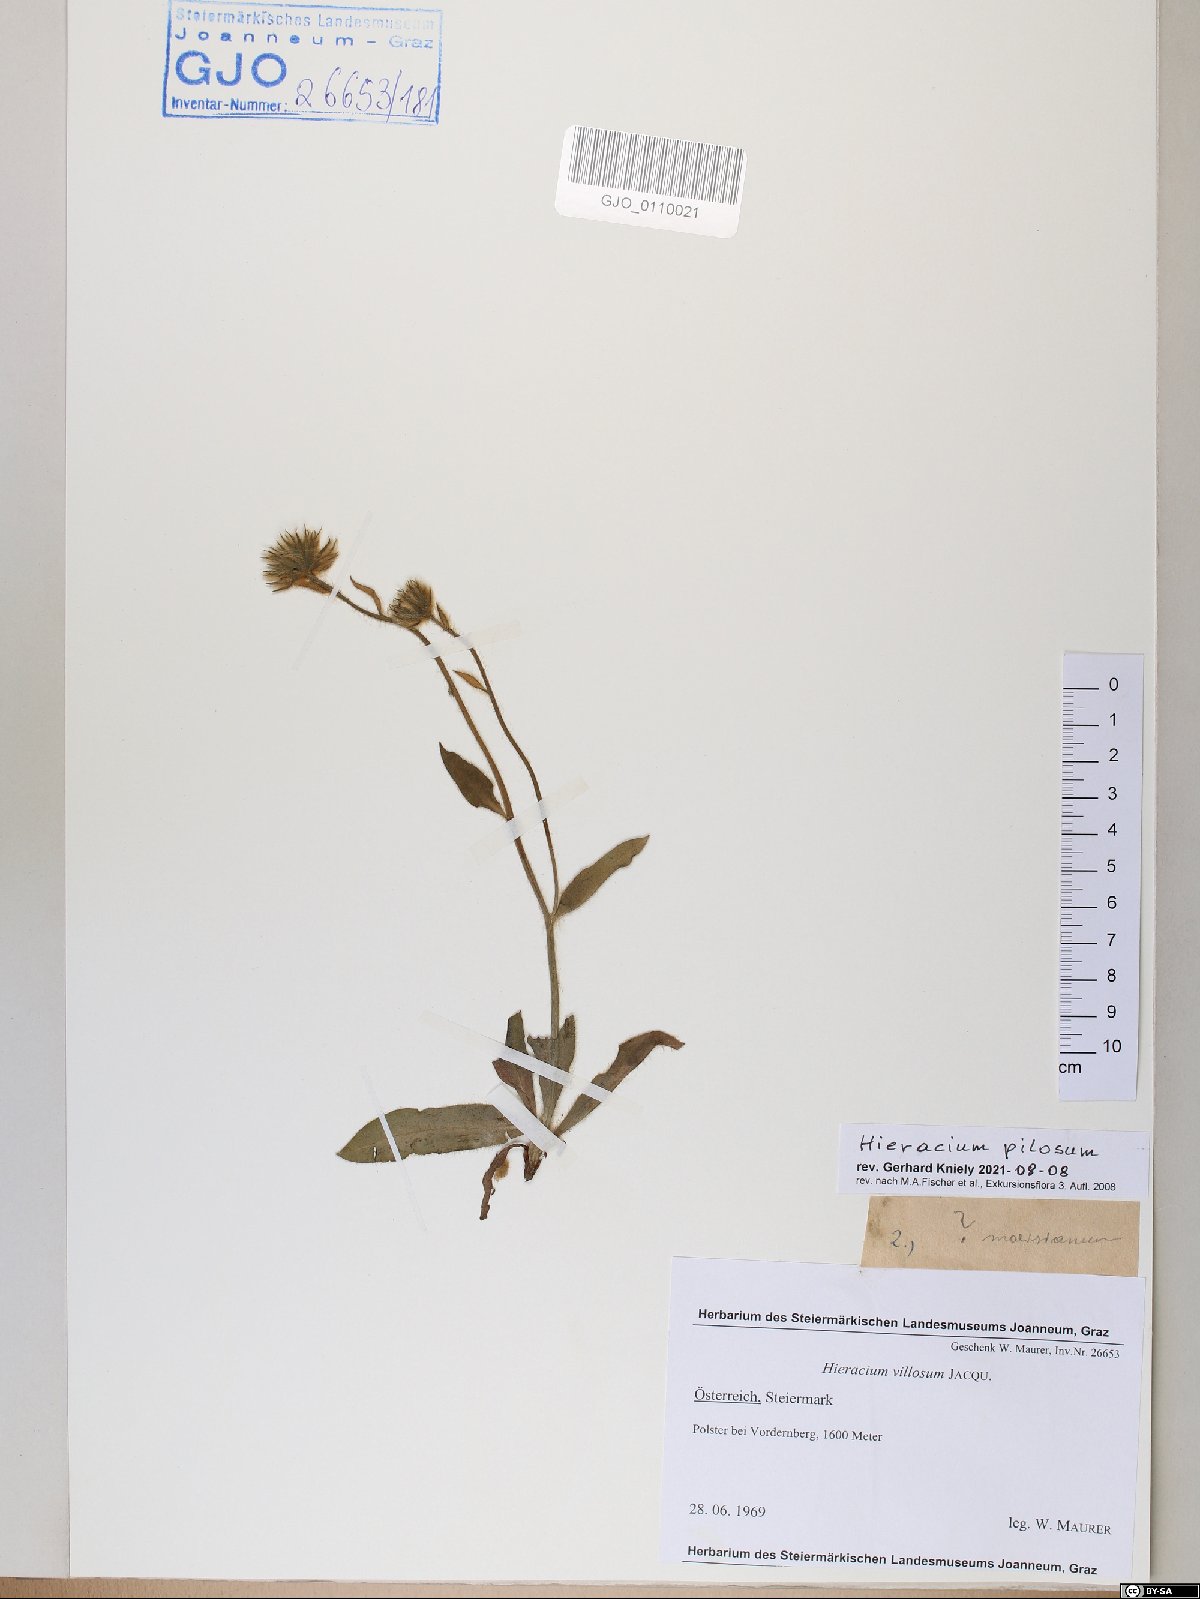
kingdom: Plantae
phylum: Tracheophyta
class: Magnoliopsida
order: Asterales
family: Asteraceae
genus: Hieracium
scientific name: Hieracium pilosum
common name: Fimbriate-pitted hawkweed
